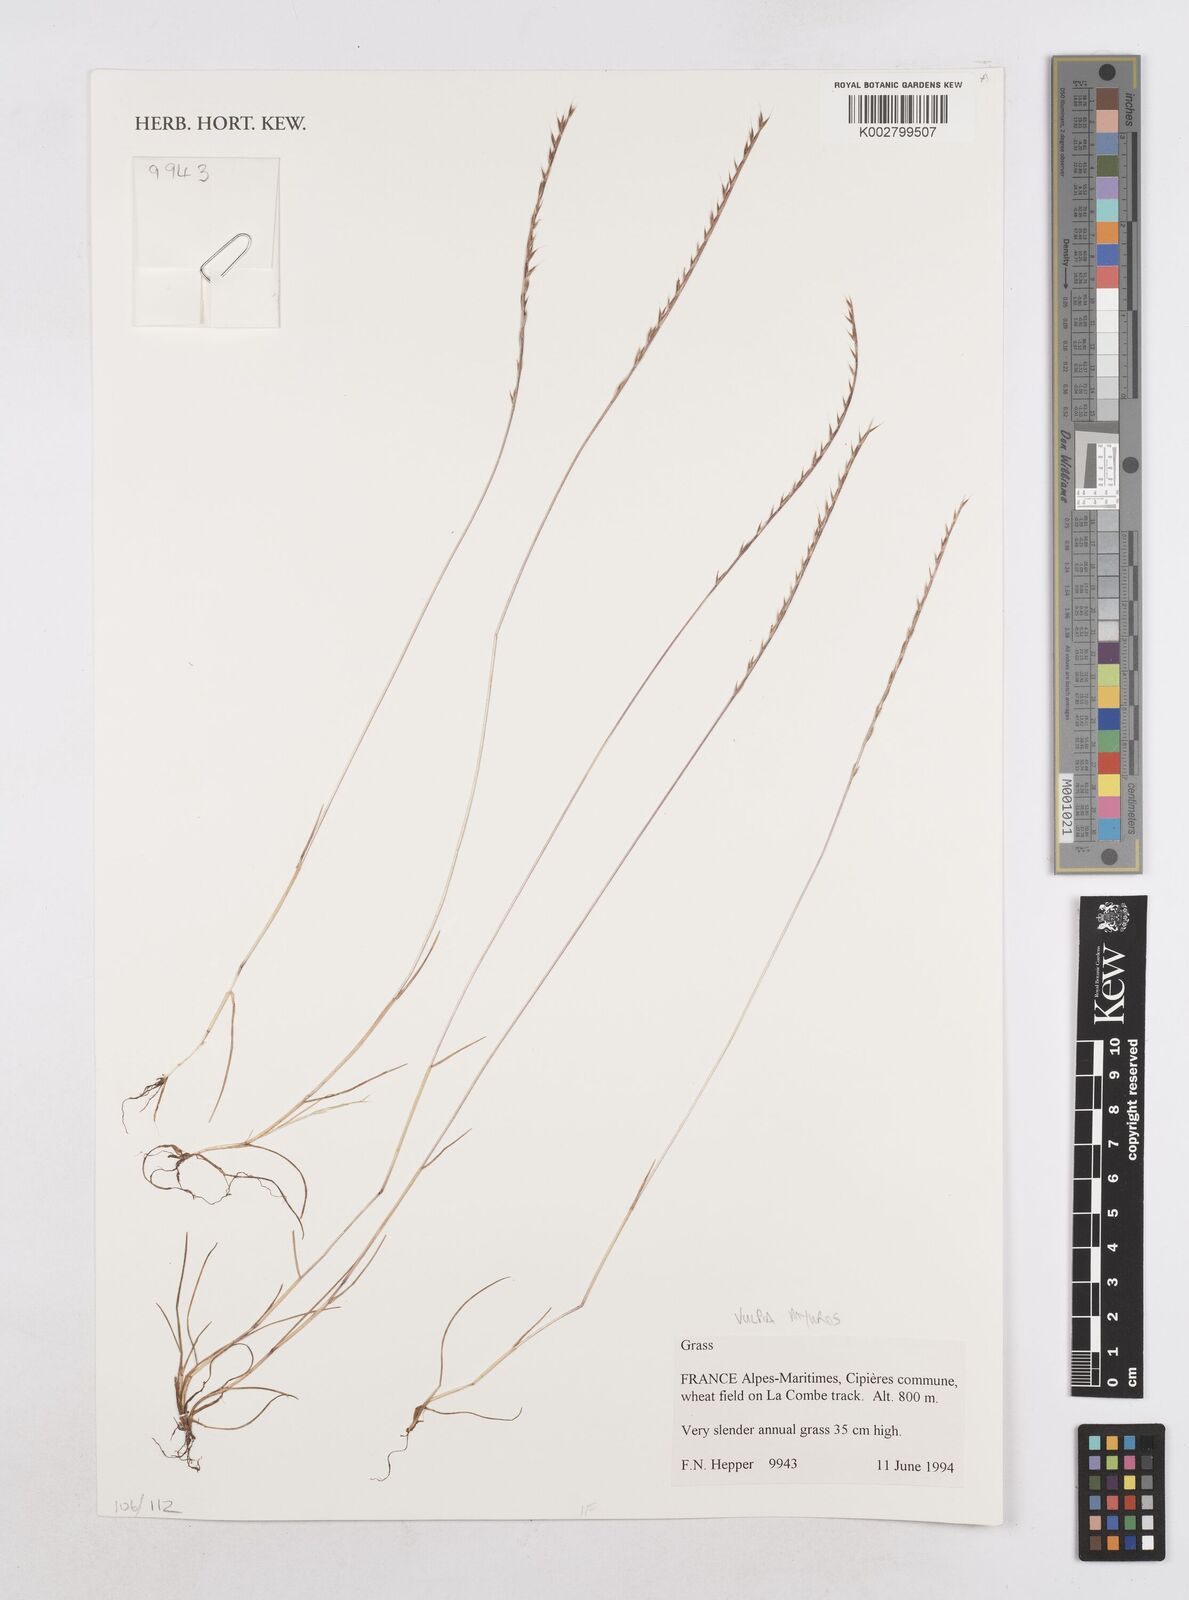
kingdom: Plantae
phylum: Tracheophyta
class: Liliopsida
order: Poales
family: Poaceae
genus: Festuca
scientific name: Festuca myuros
